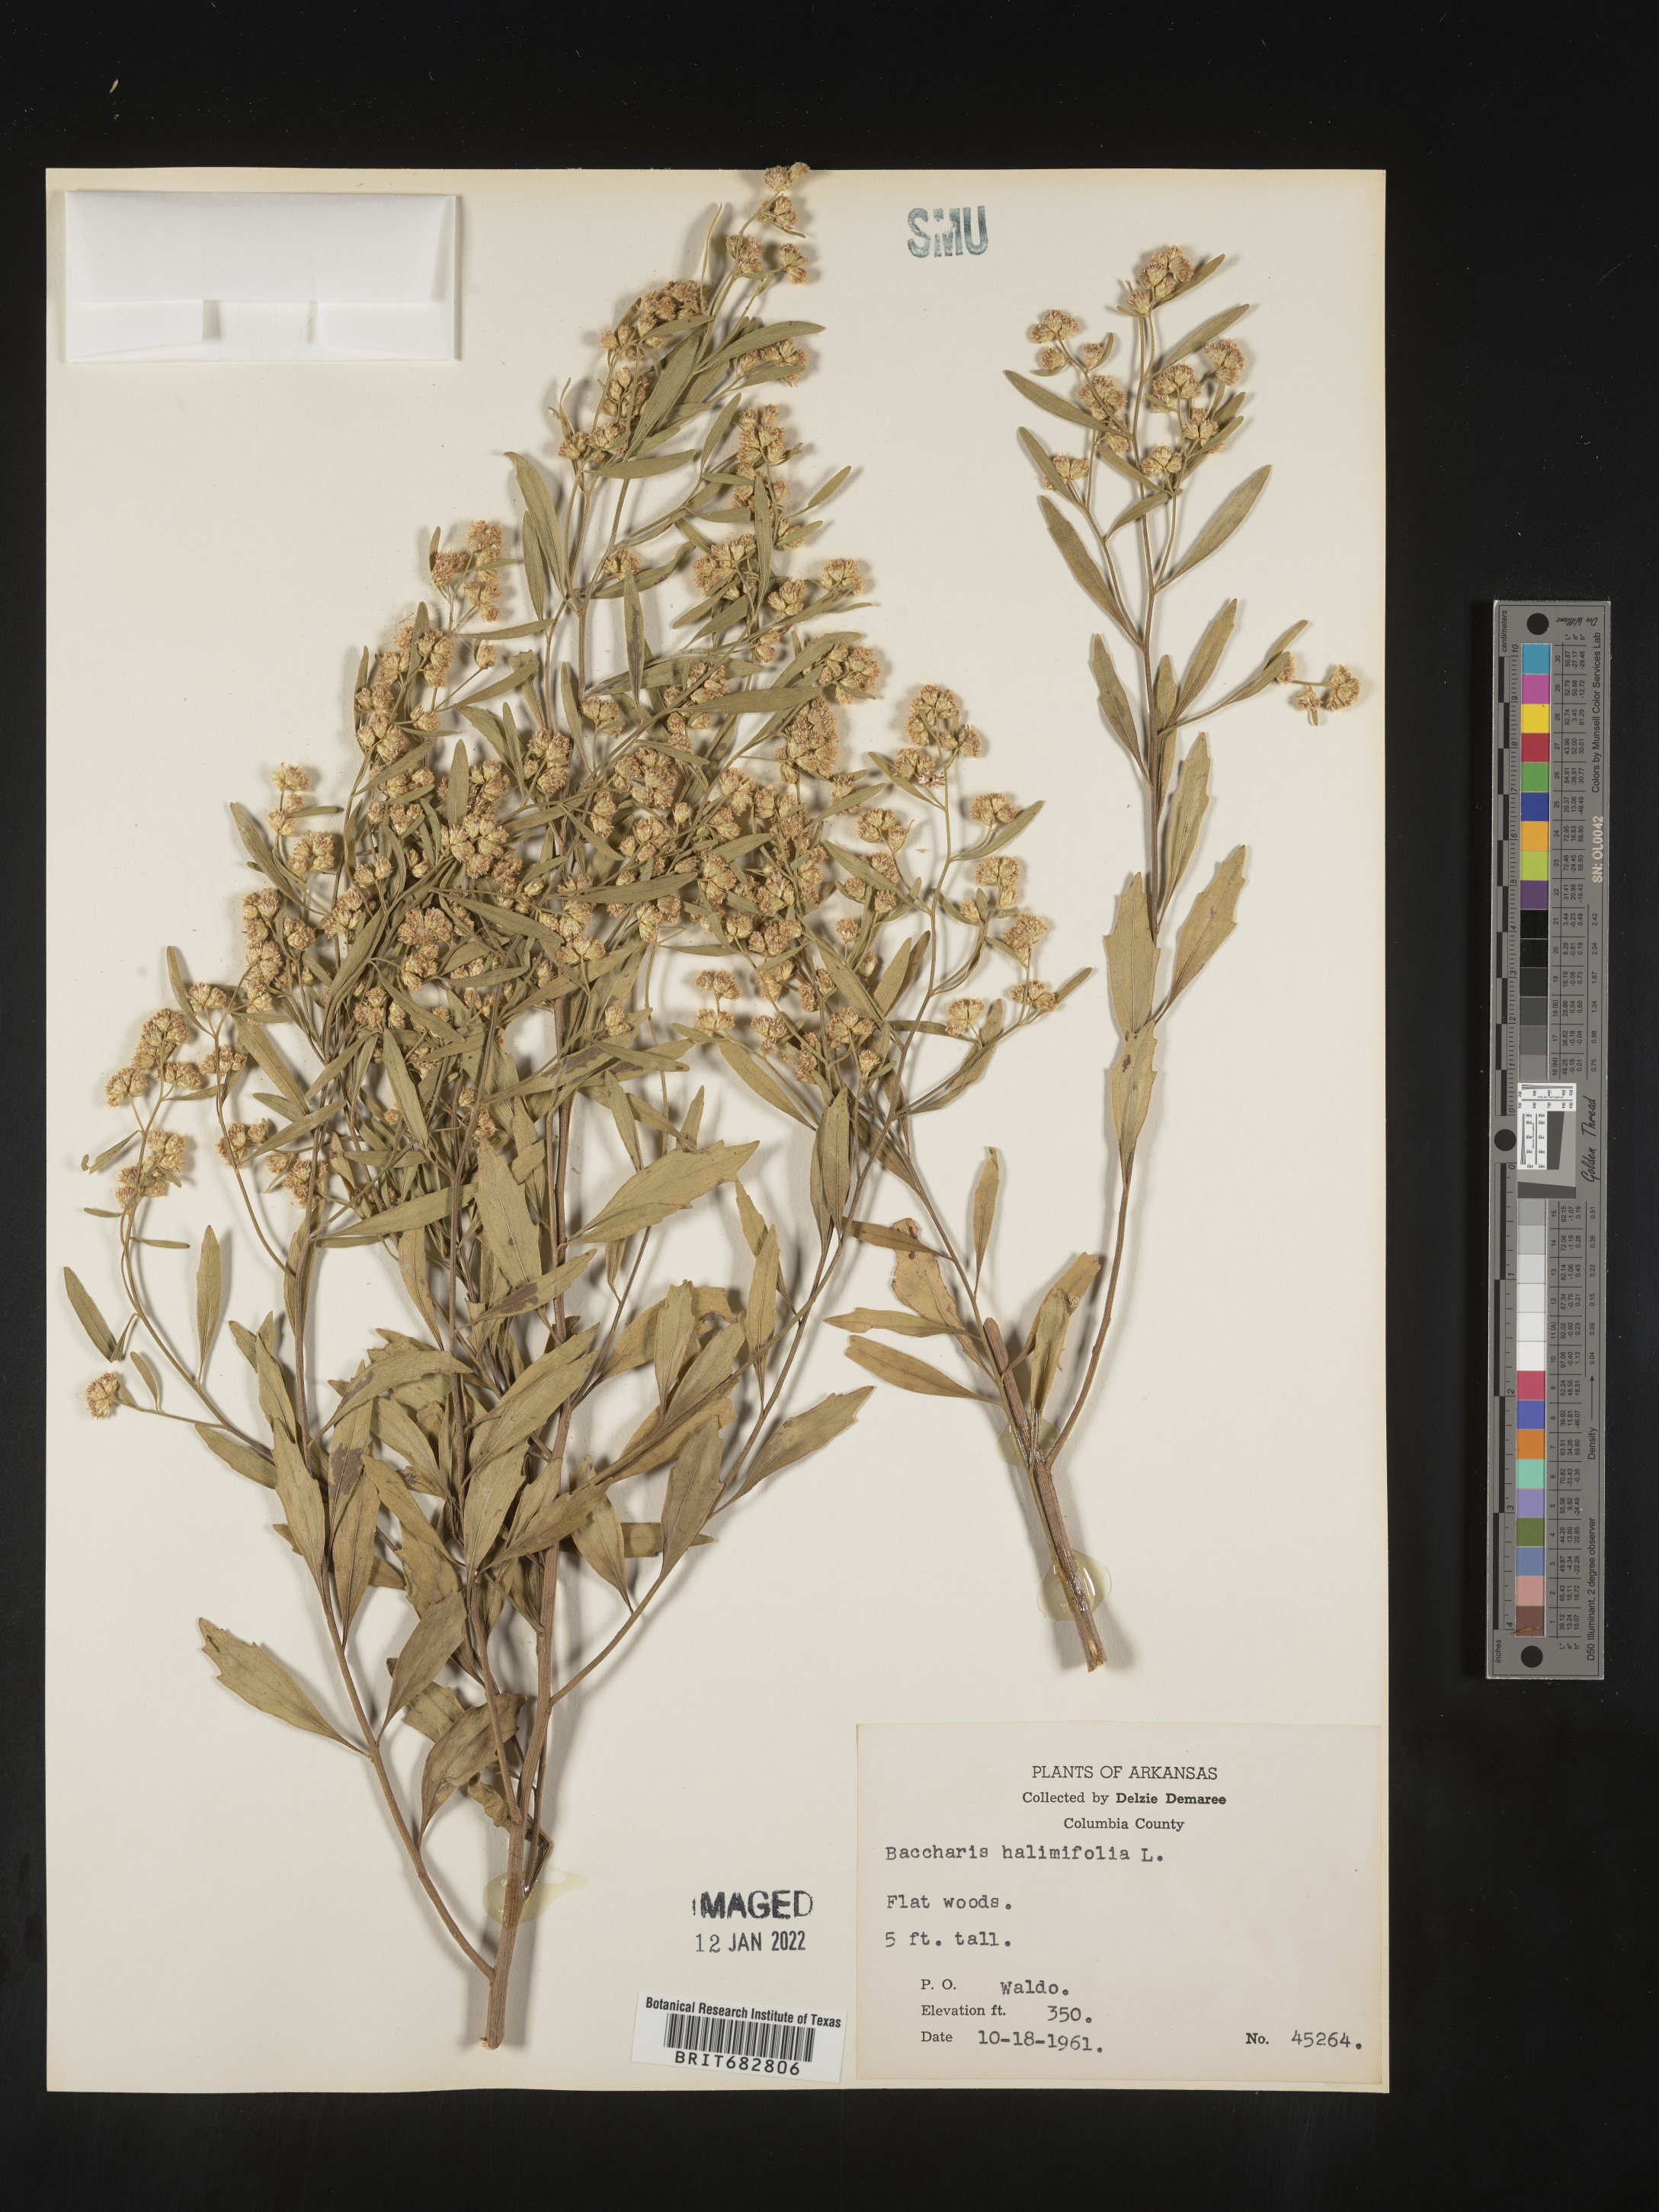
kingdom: Plantae
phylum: Tracheophyta
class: Magnoliopsida
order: Asterales
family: Asteraceae
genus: Nidorella
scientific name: Nidorella ivifolia
